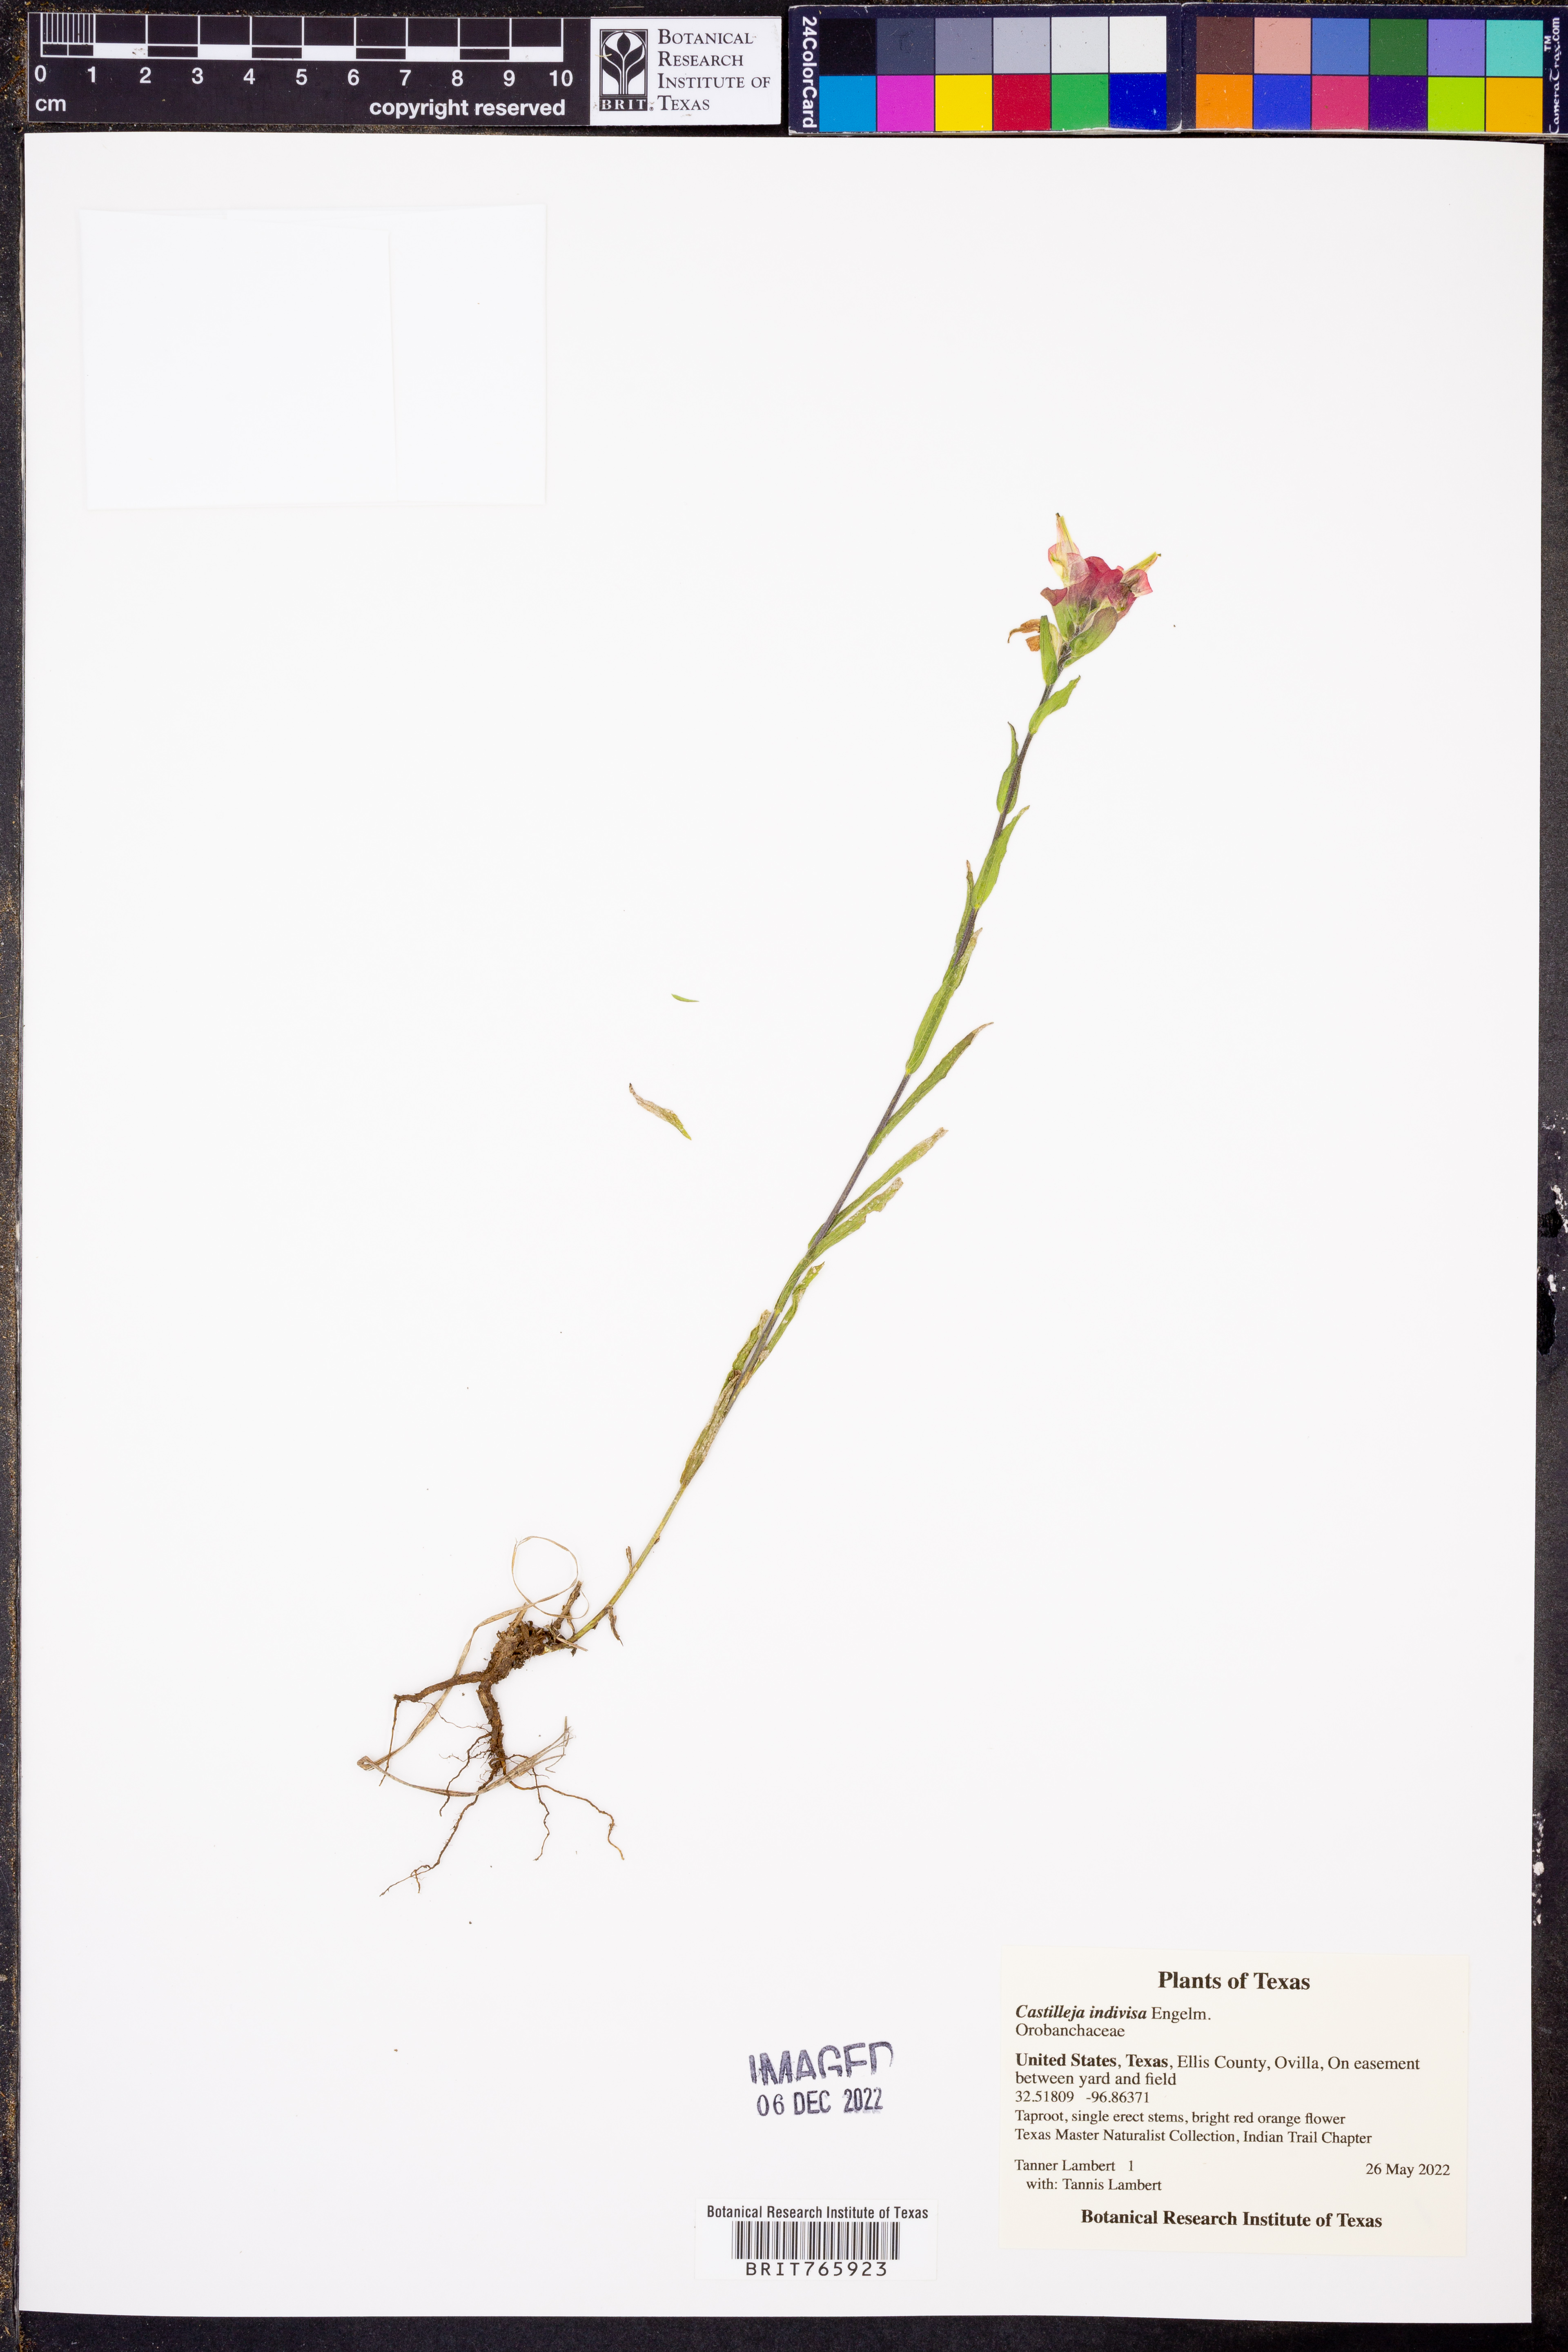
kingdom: Plantae
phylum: Tracheophyta
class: Magnoliopsida
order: Lamiales
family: Orobanchaceae
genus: Castilleja
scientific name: Castilleja indivisa
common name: Texas paintbrush
